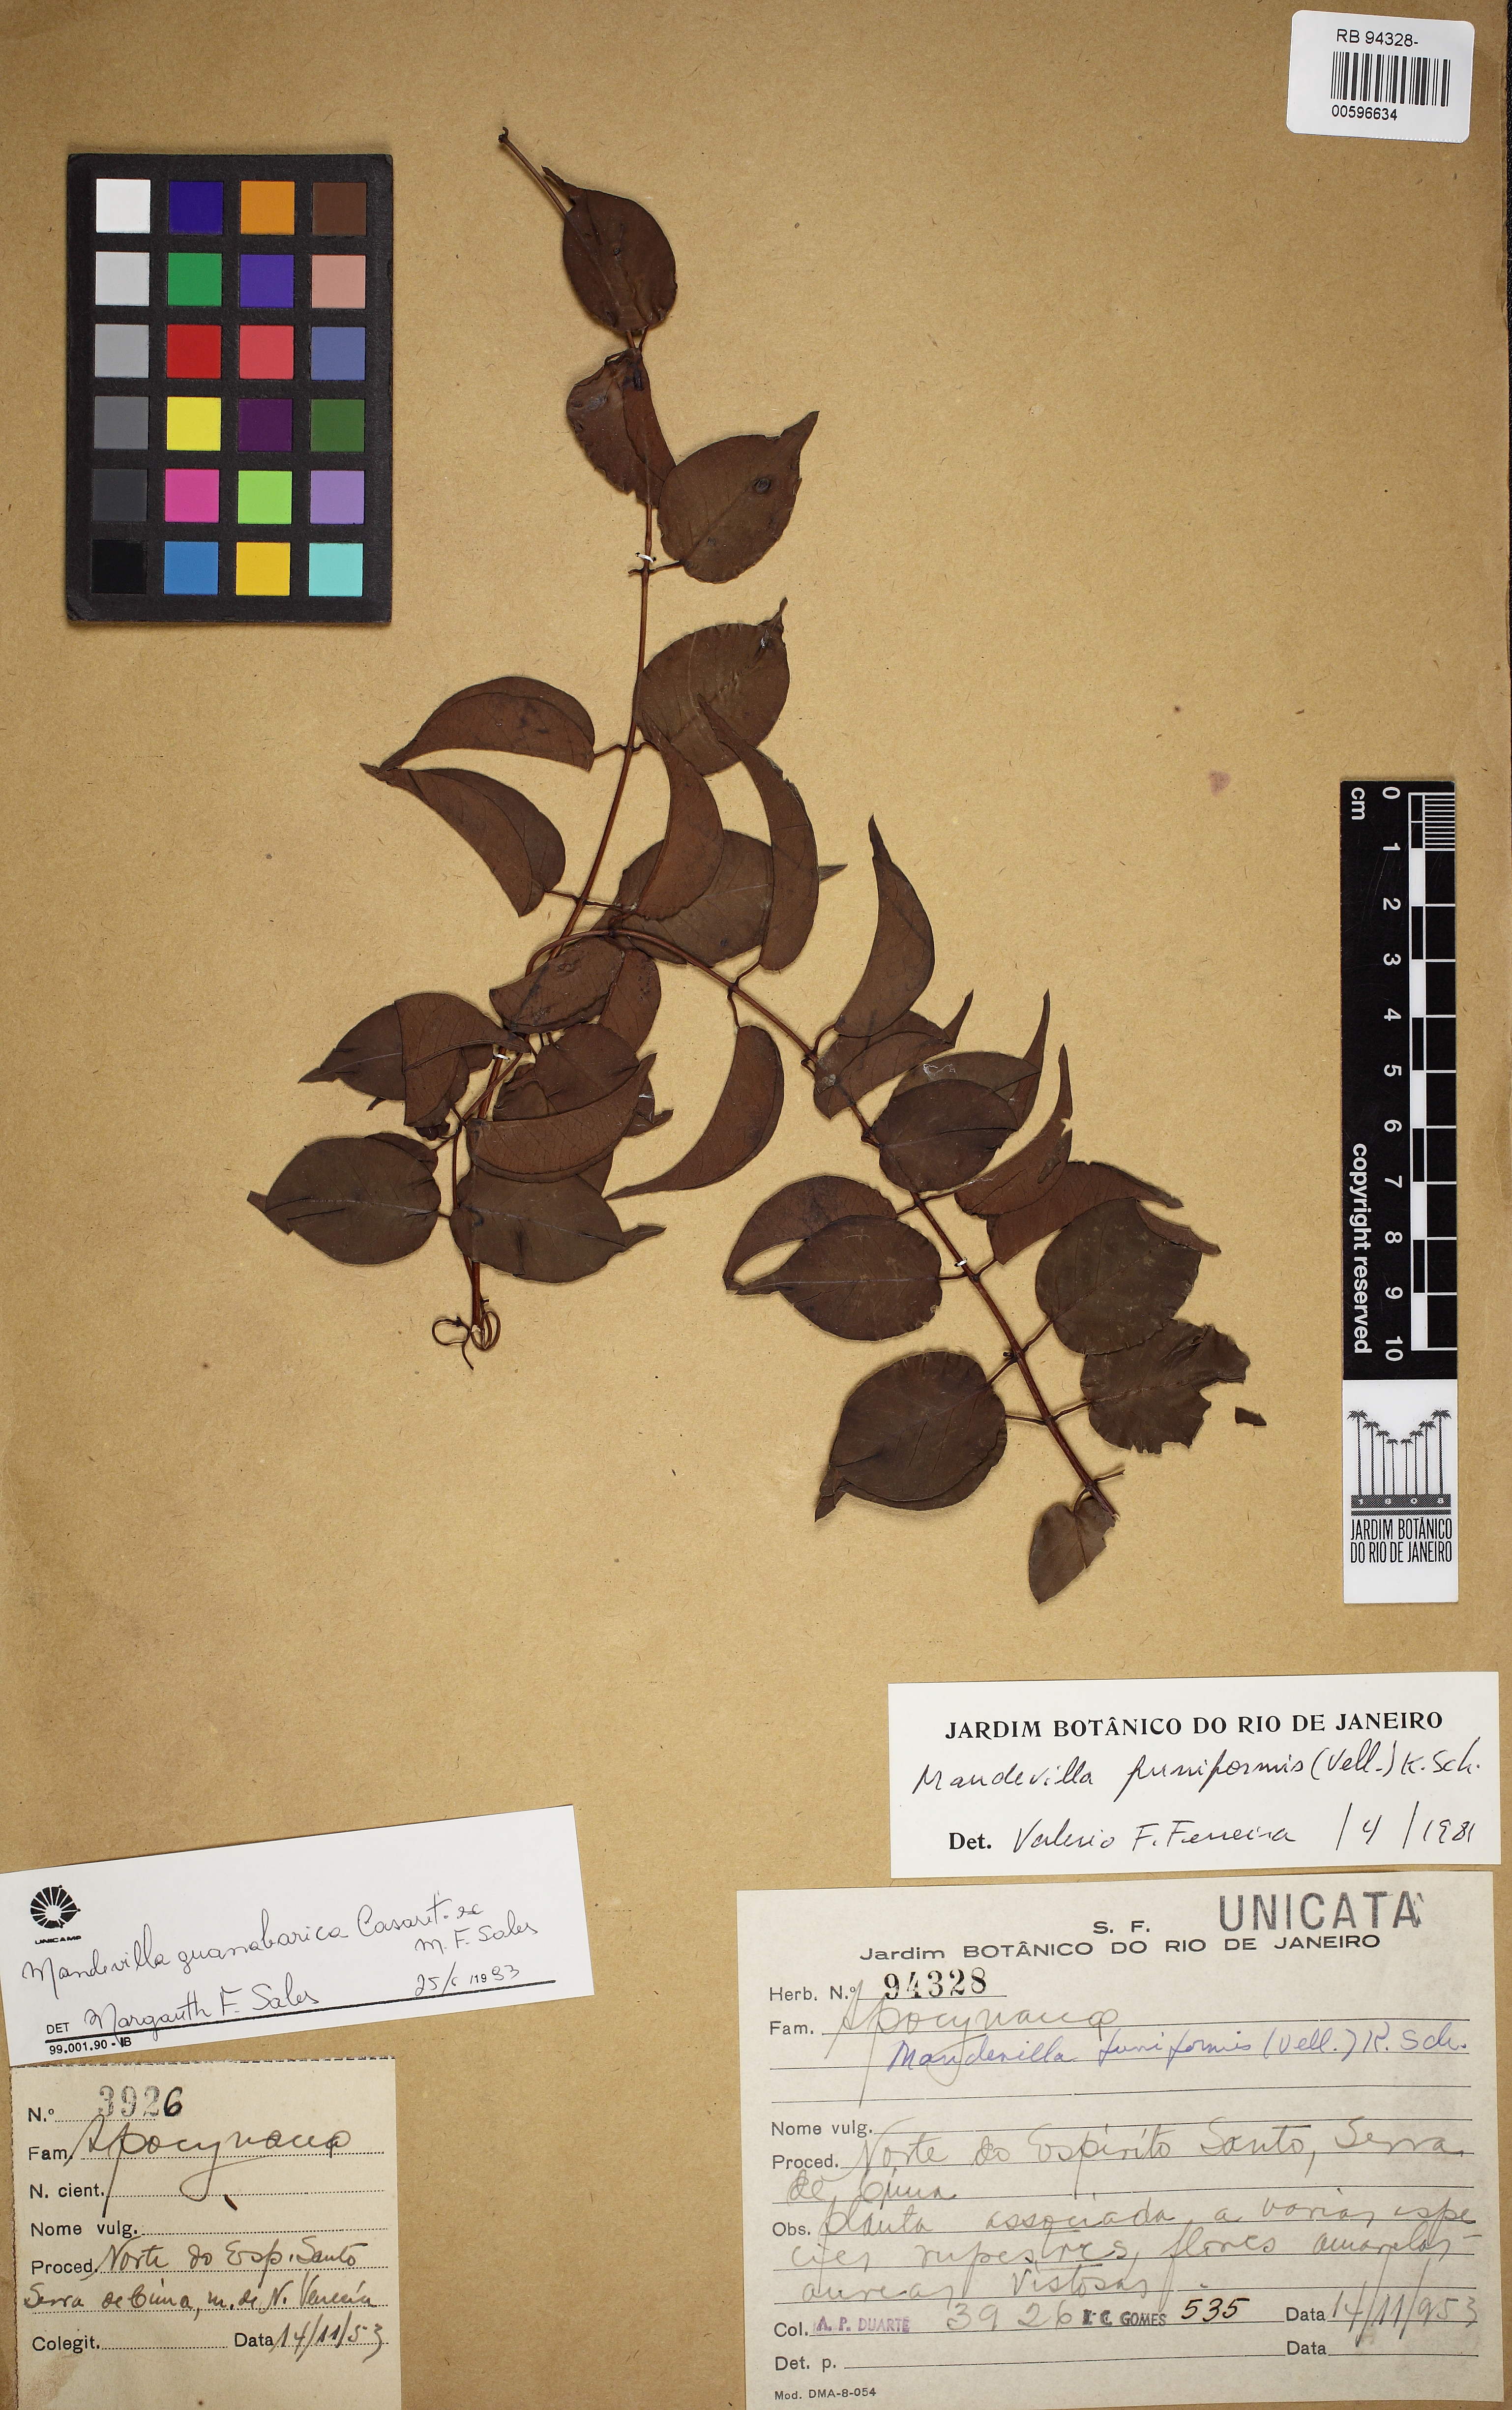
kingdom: Plantae
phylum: Tracheophyta
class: Magnoliopsida
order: Gentianales
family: Apocynaceae
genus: Mandevilla
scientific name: Mandevilla guanabarica
